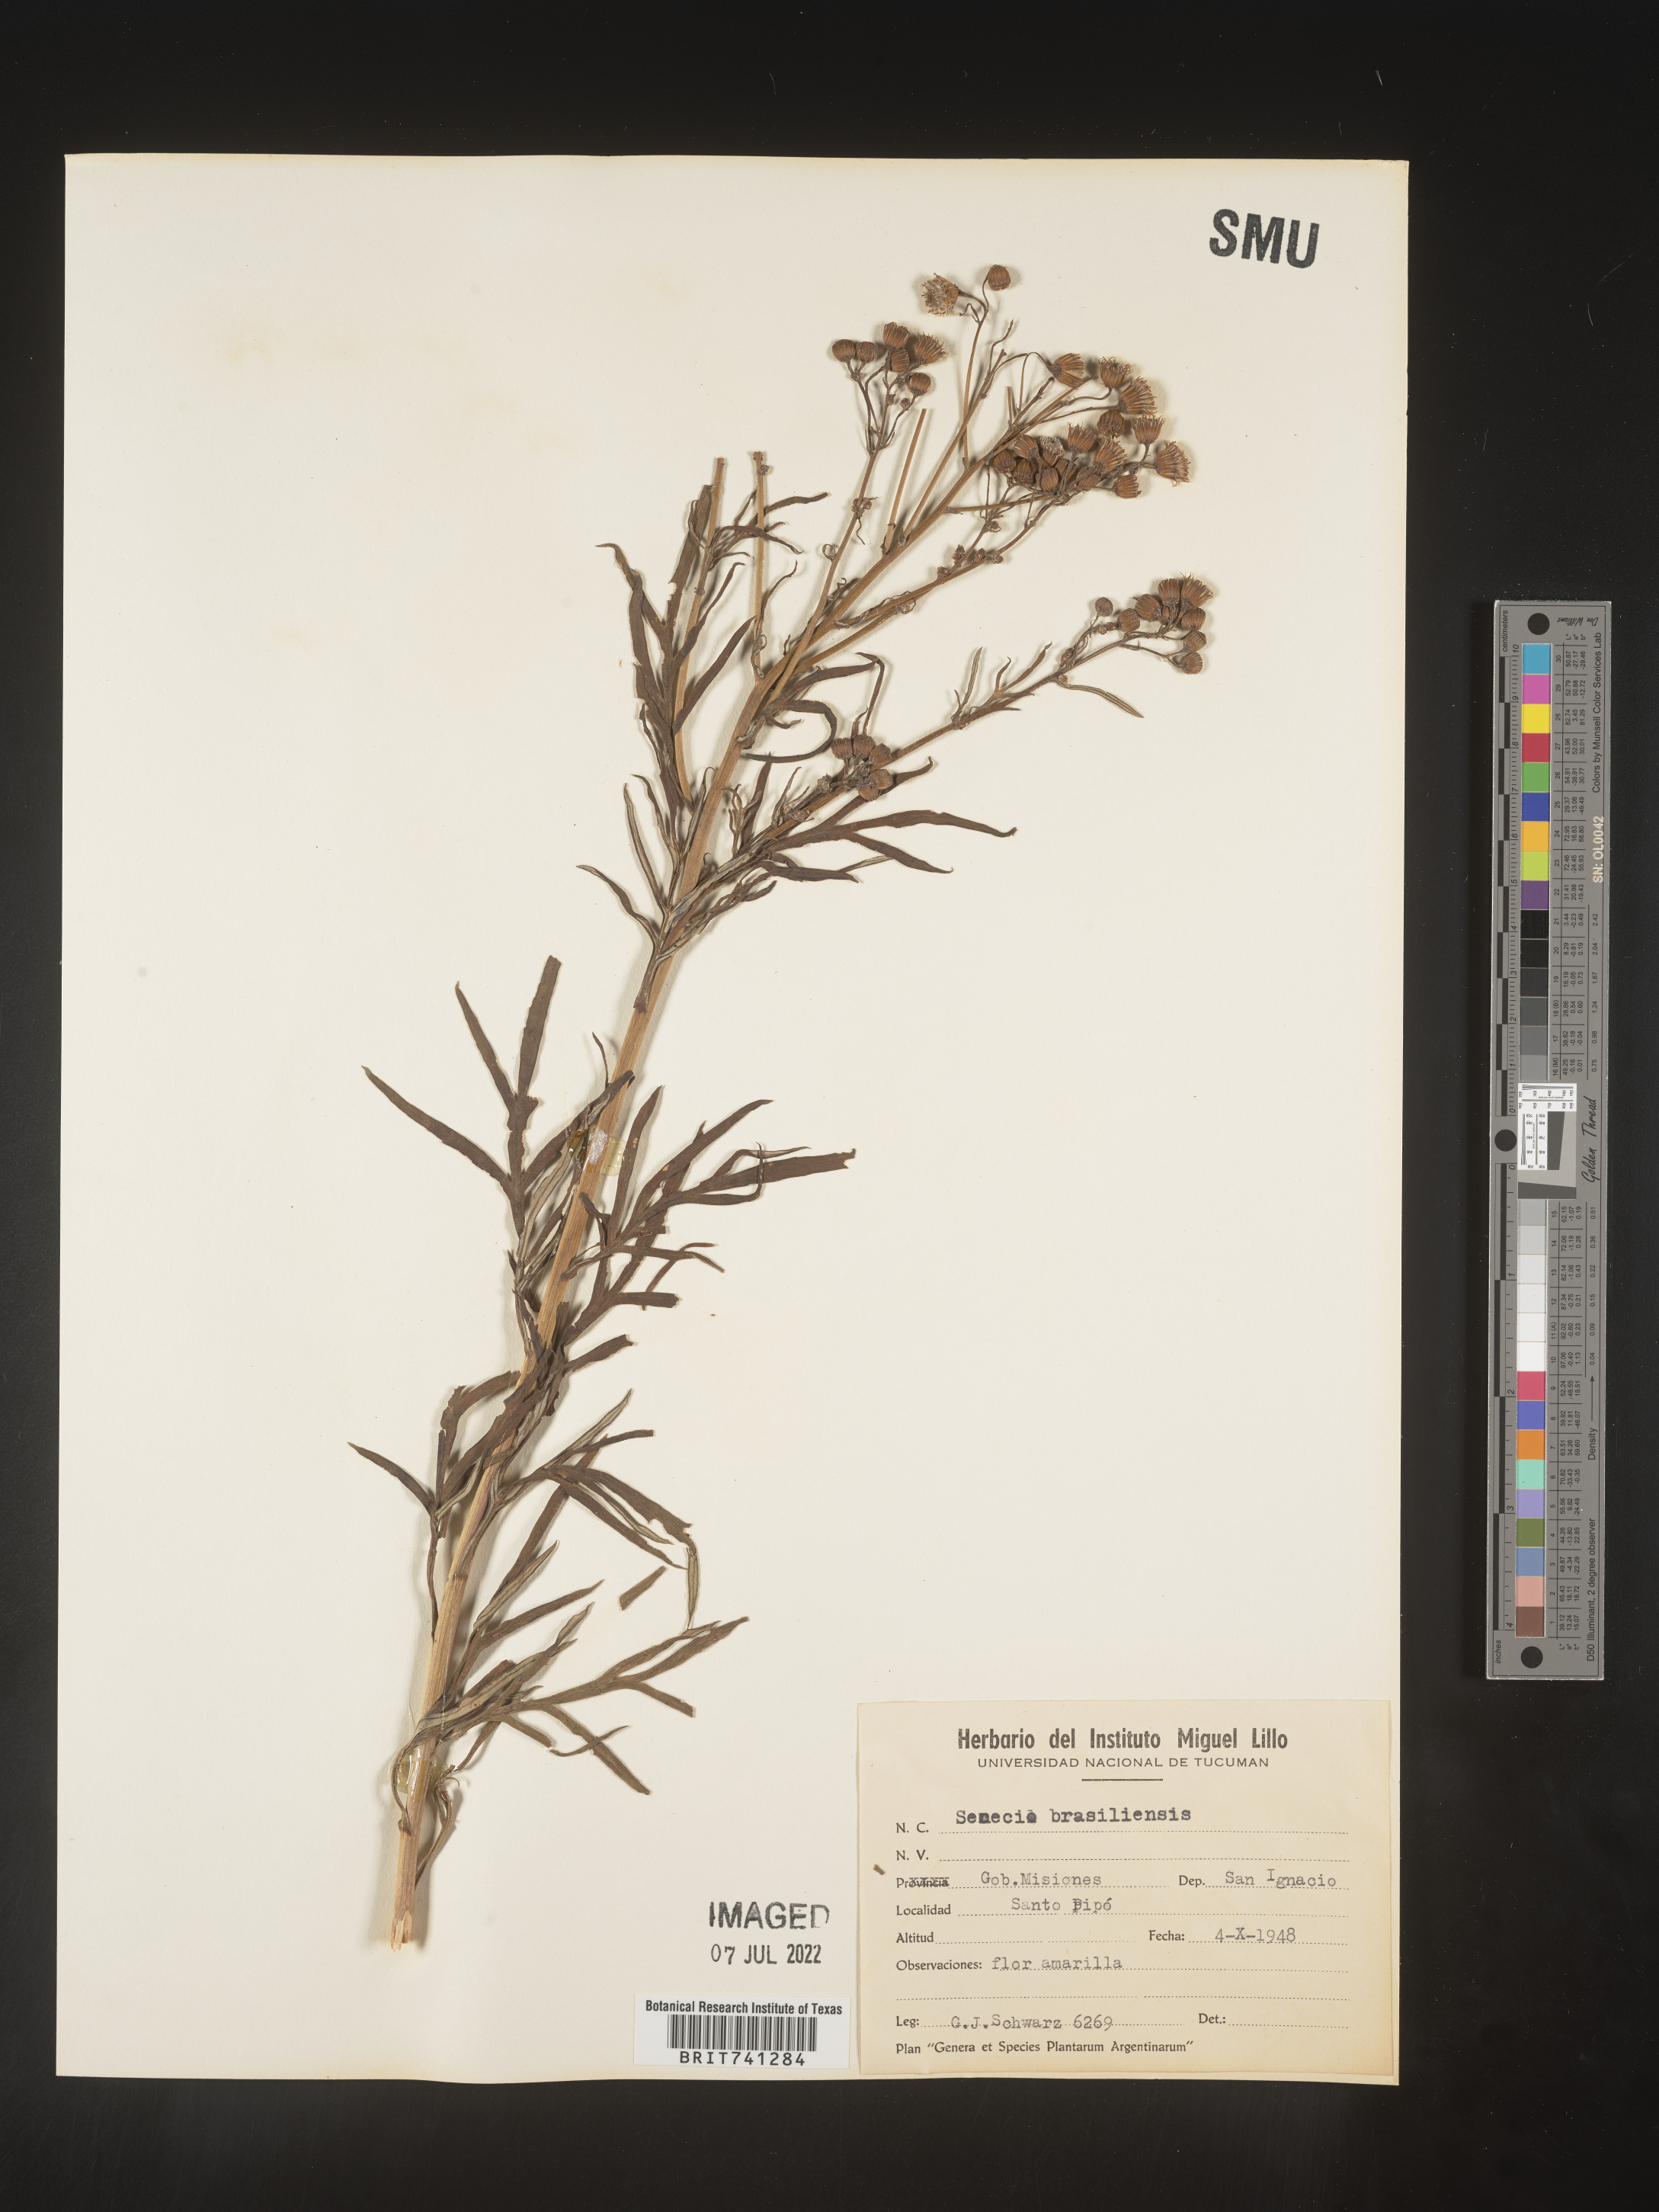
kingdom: Plantae
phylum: Tracheophyta
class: Magnoliopsida
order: Asterales
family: Asteraceae
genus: Senecio
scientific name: Senecio
